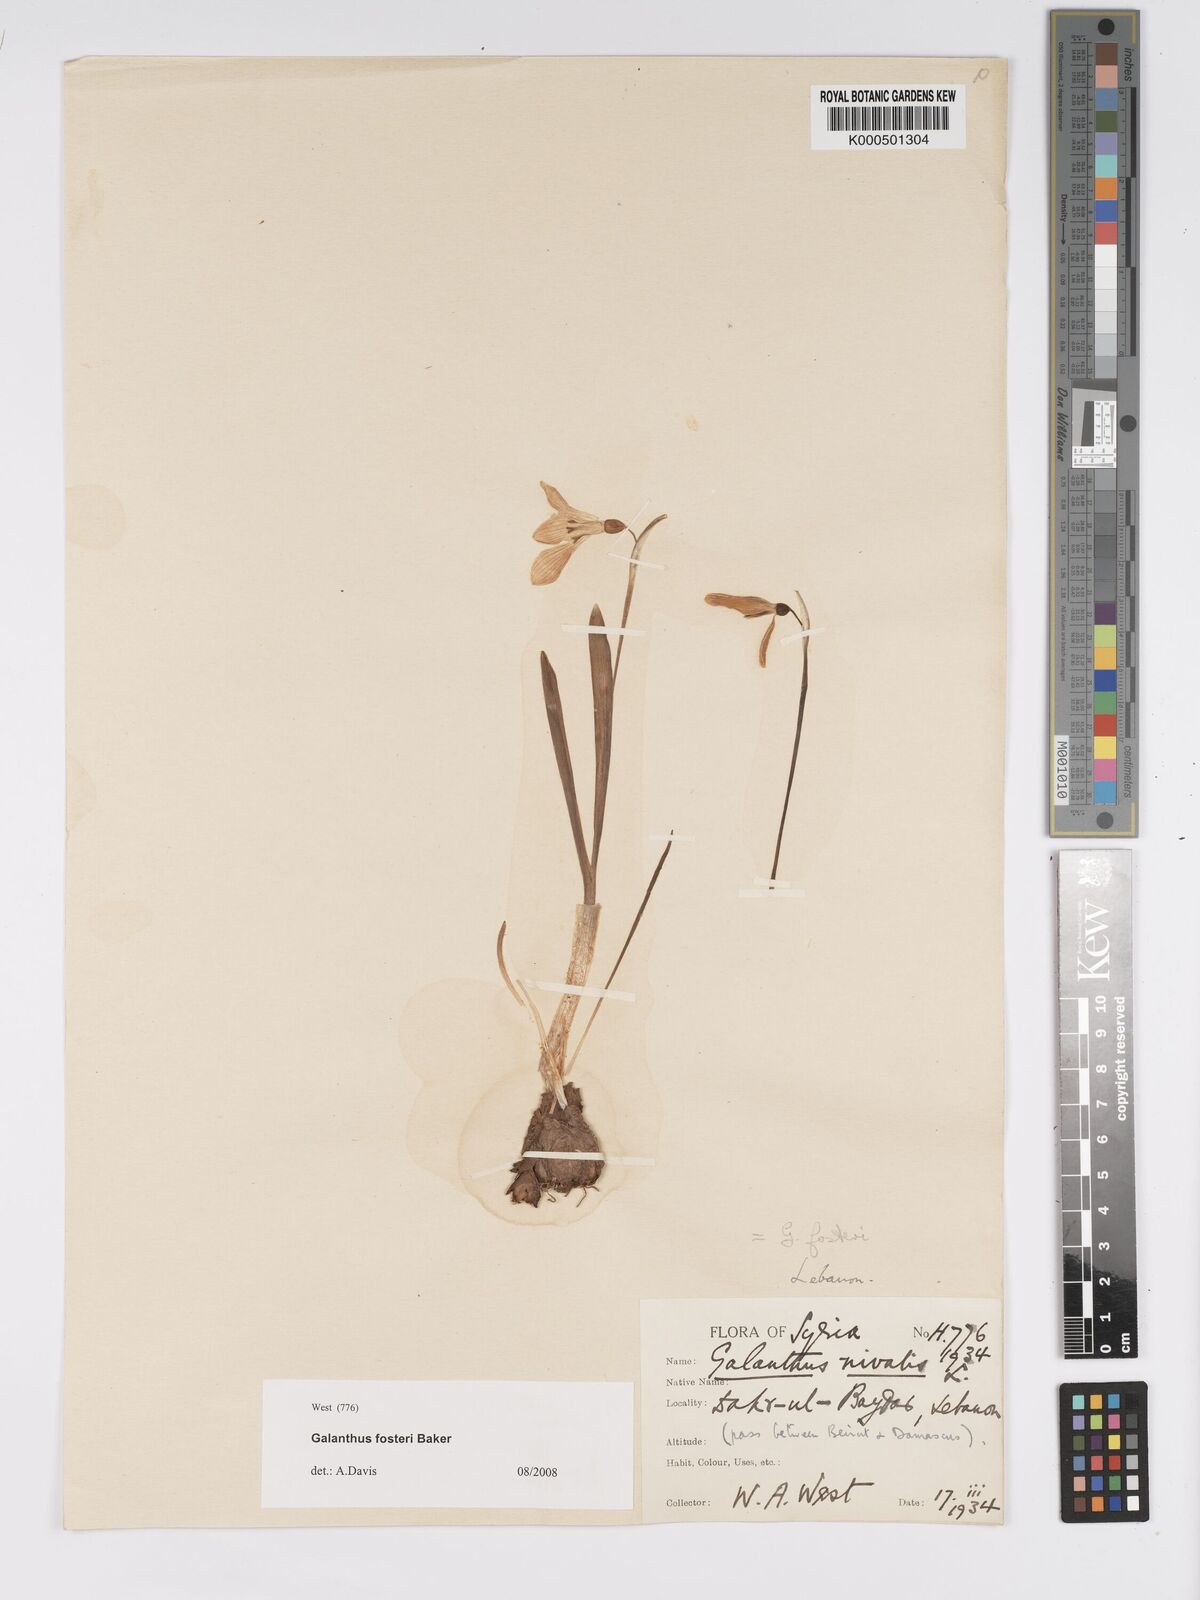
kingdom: Plantae
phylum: Tracheophyta
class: Liliopsida
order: Asparagales
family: Amaryllidaceae
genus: Galanthus
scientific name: Galanthus fosteri
